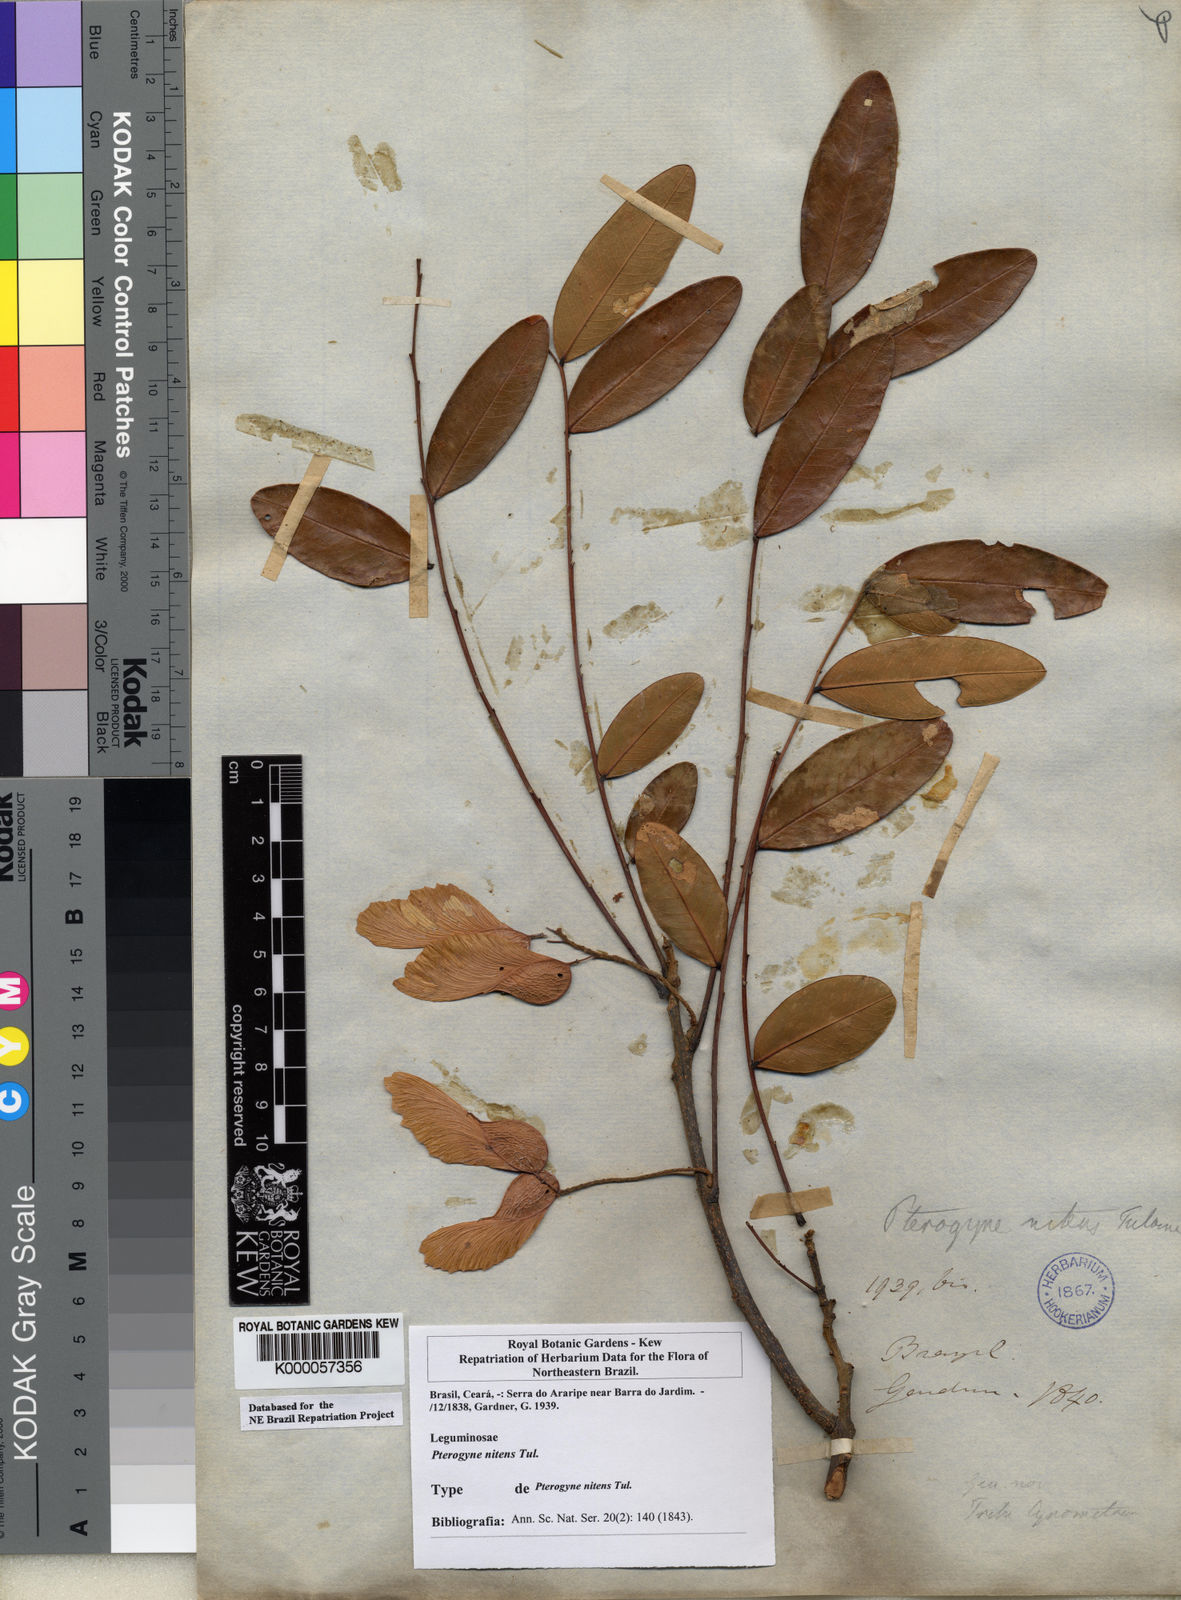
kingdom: Plantae
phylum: Tracheophyta
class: Magnoliopsida
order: Fabales
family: Fabaceae
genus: Pterogyne
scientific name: Pterogyne nitens
